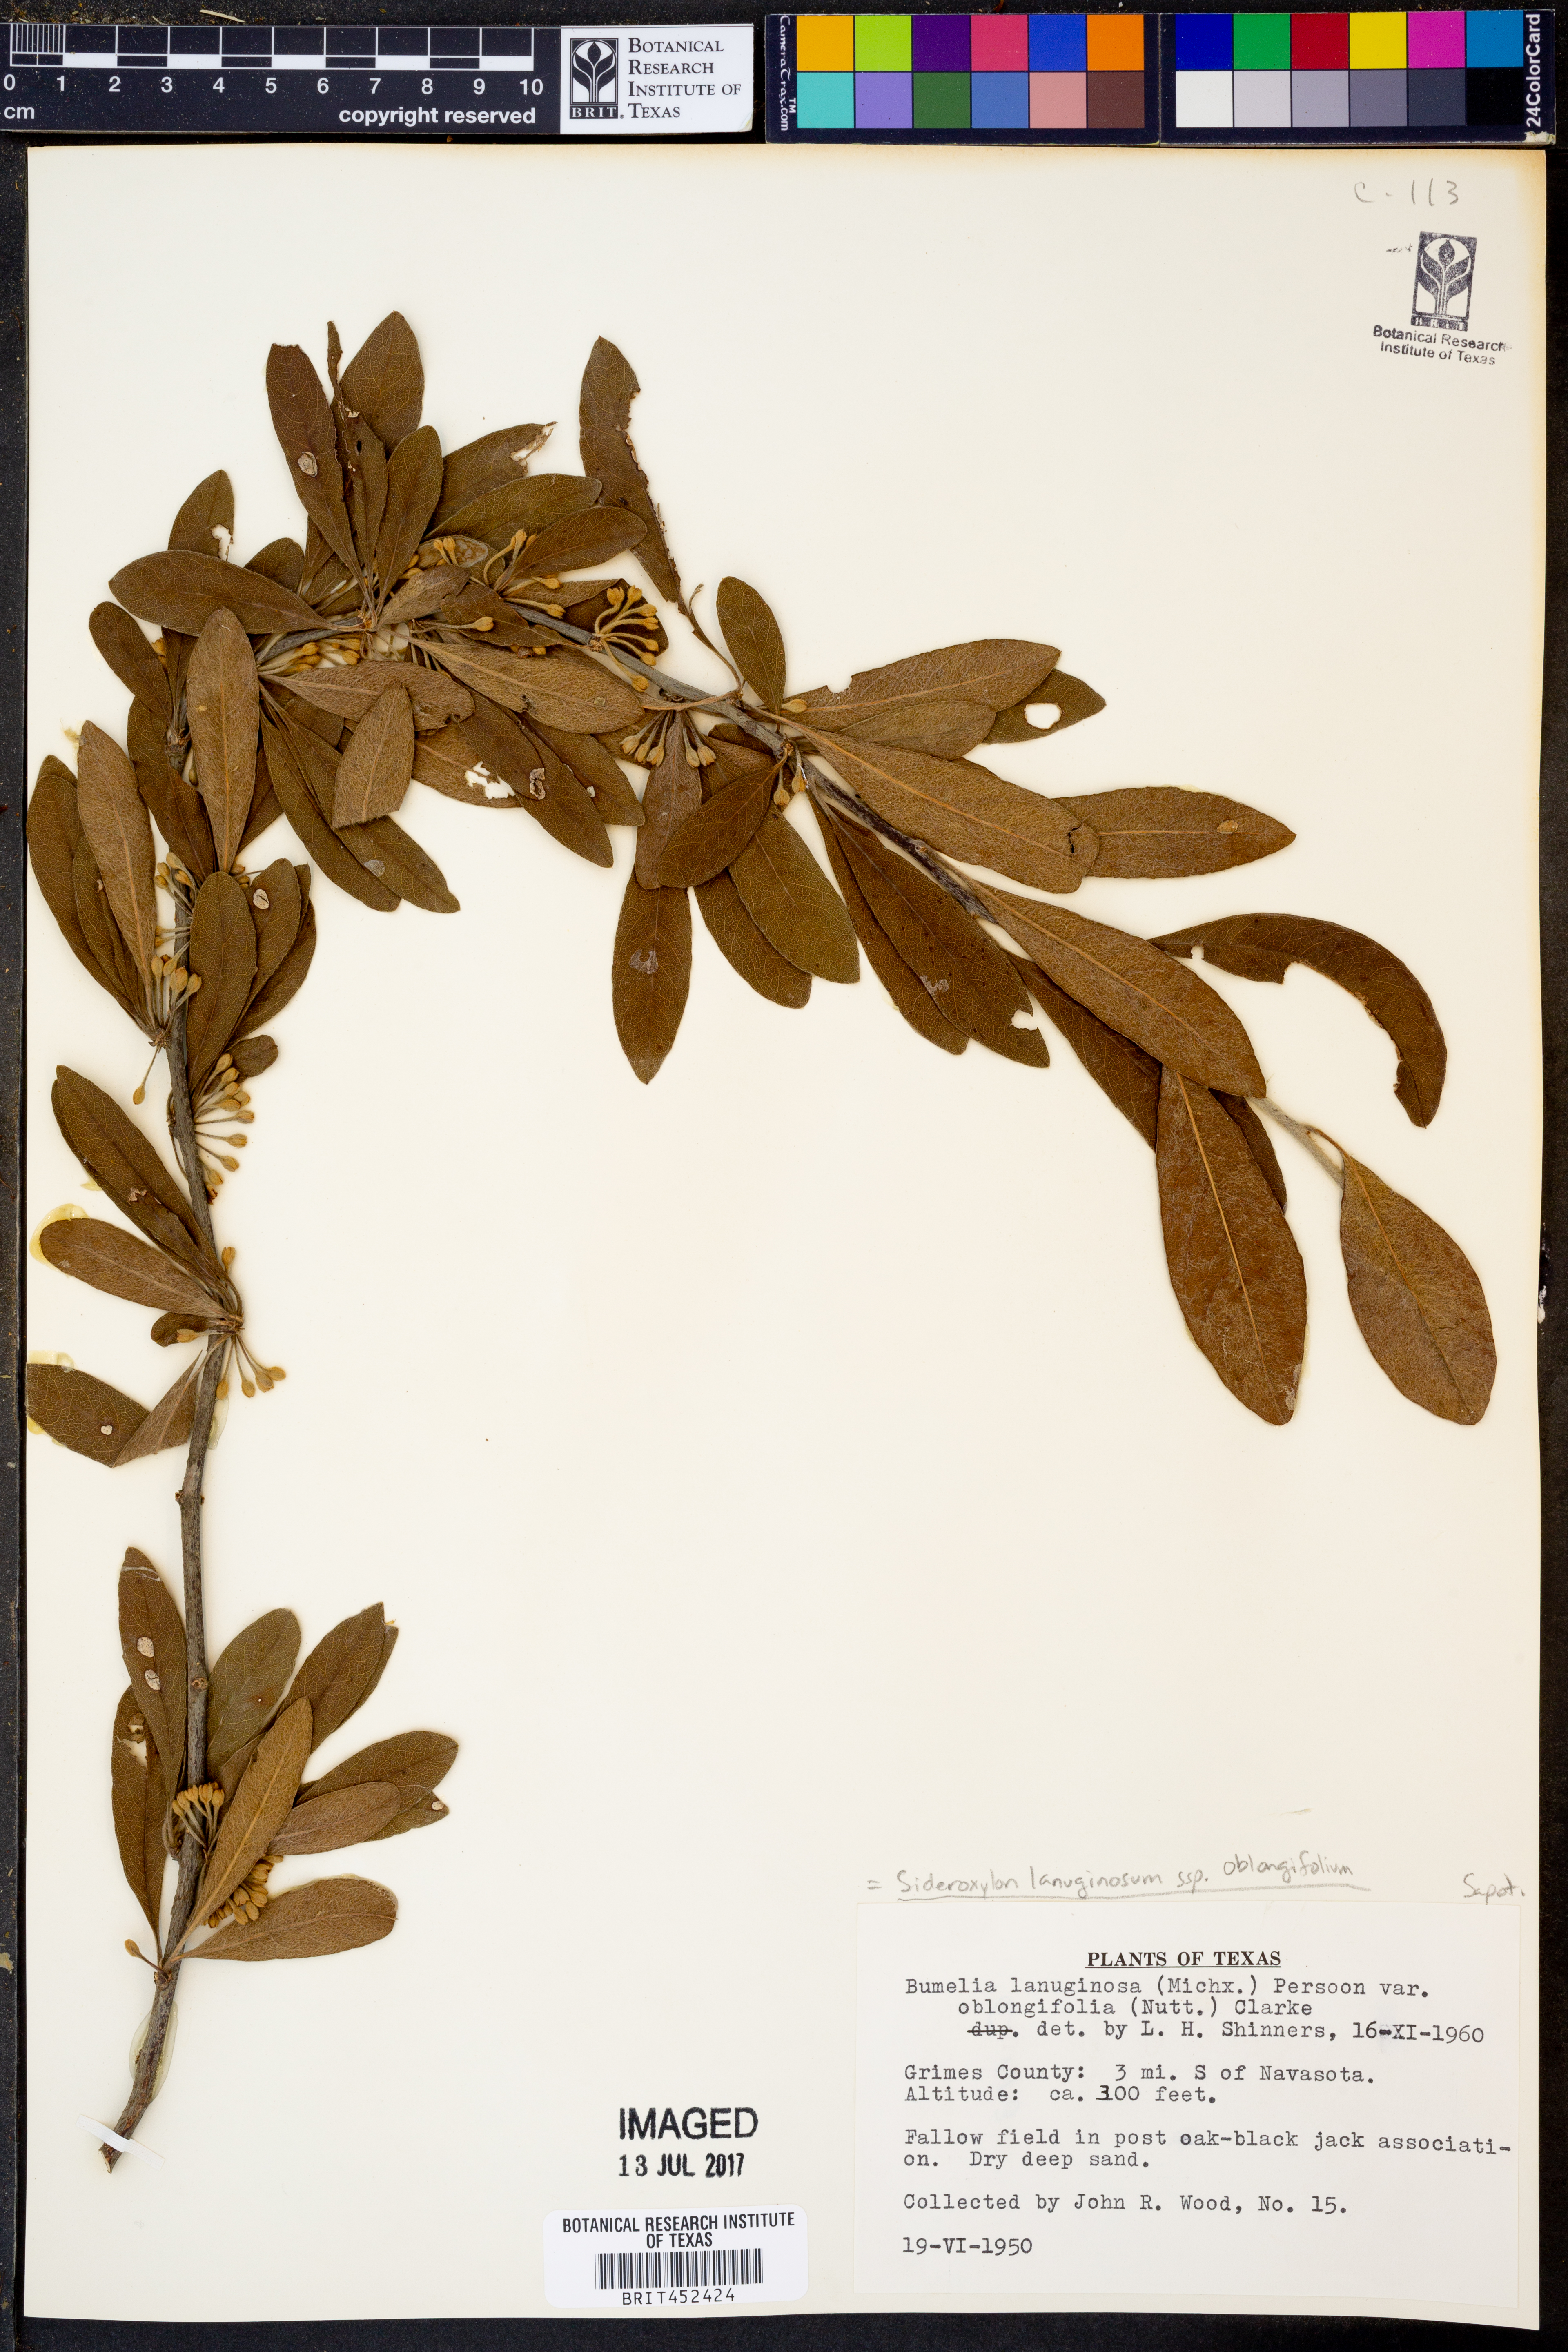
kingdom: Plantae
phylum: Tracheophyta
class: Magnoliopsida
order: Ericales
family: Sapotaceae
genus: Sideroxylon
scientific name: Sideroxylon lanuginosum
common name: Chittamwood
